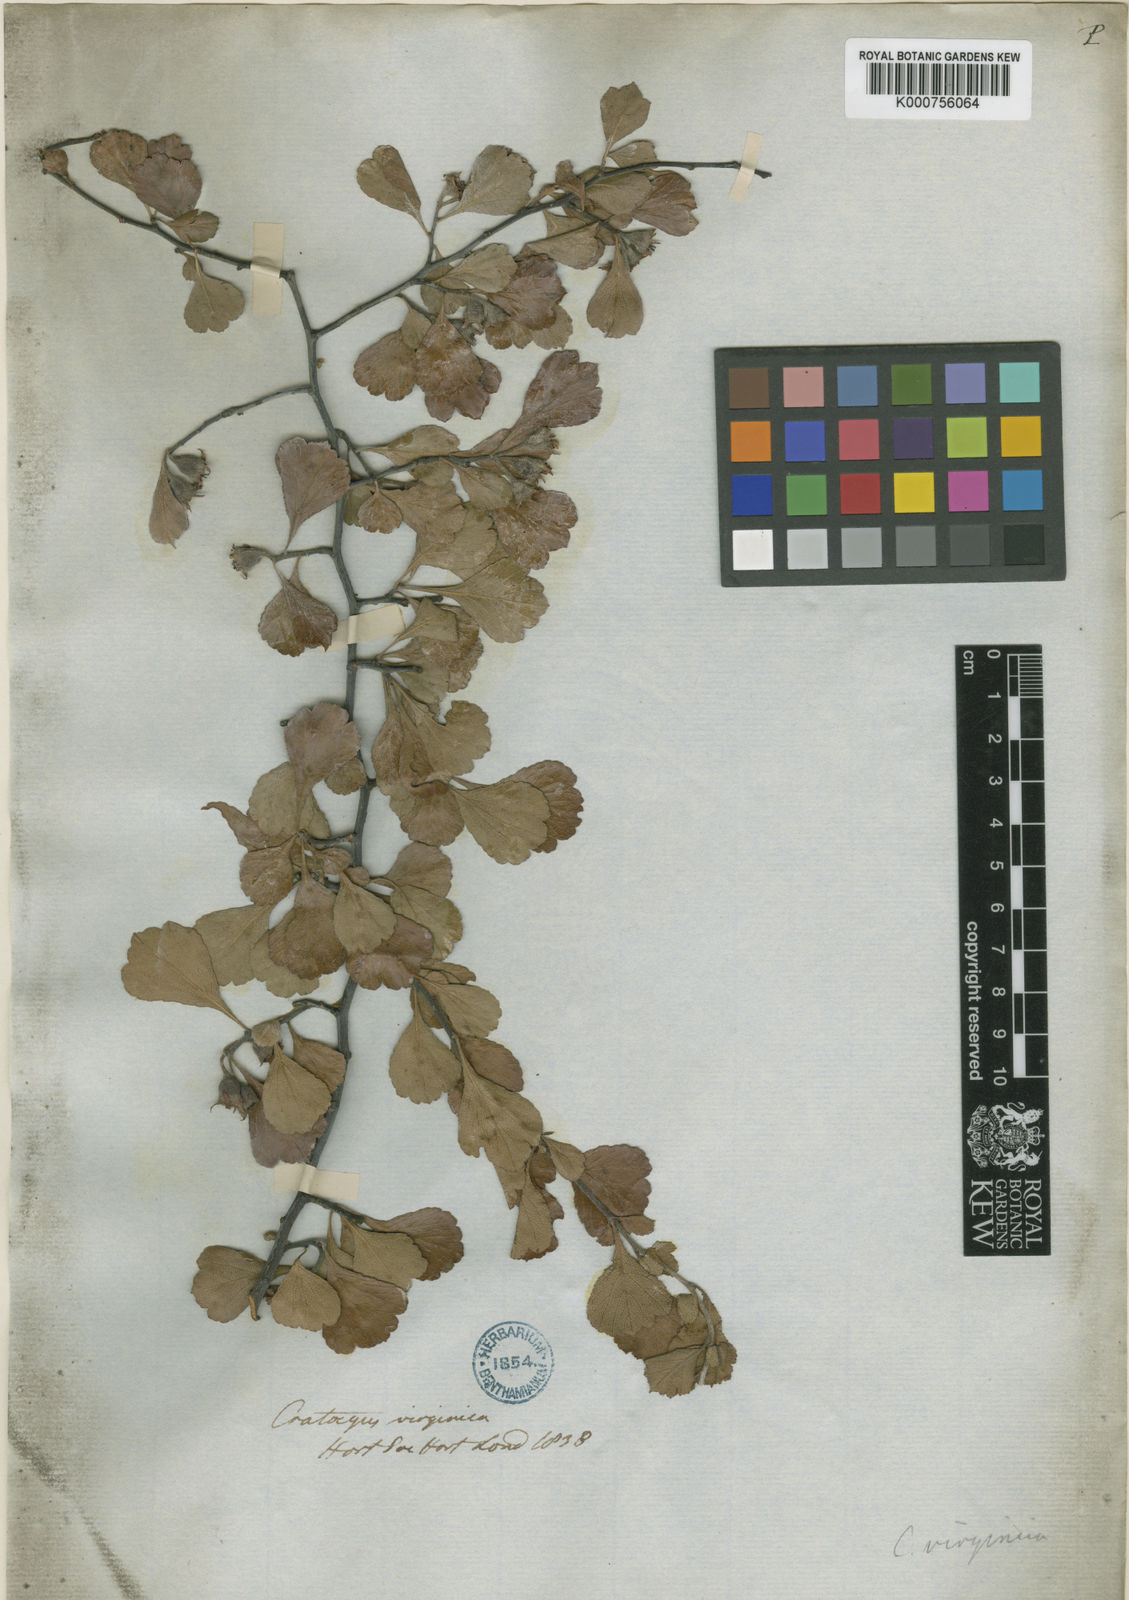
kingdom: Plantae
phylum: Tracheophyta
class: Magnoliopsida
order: Rosales
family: Rosaceae
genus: Crataegus
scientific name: Crataegus flava
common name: Yellow hawthorn
